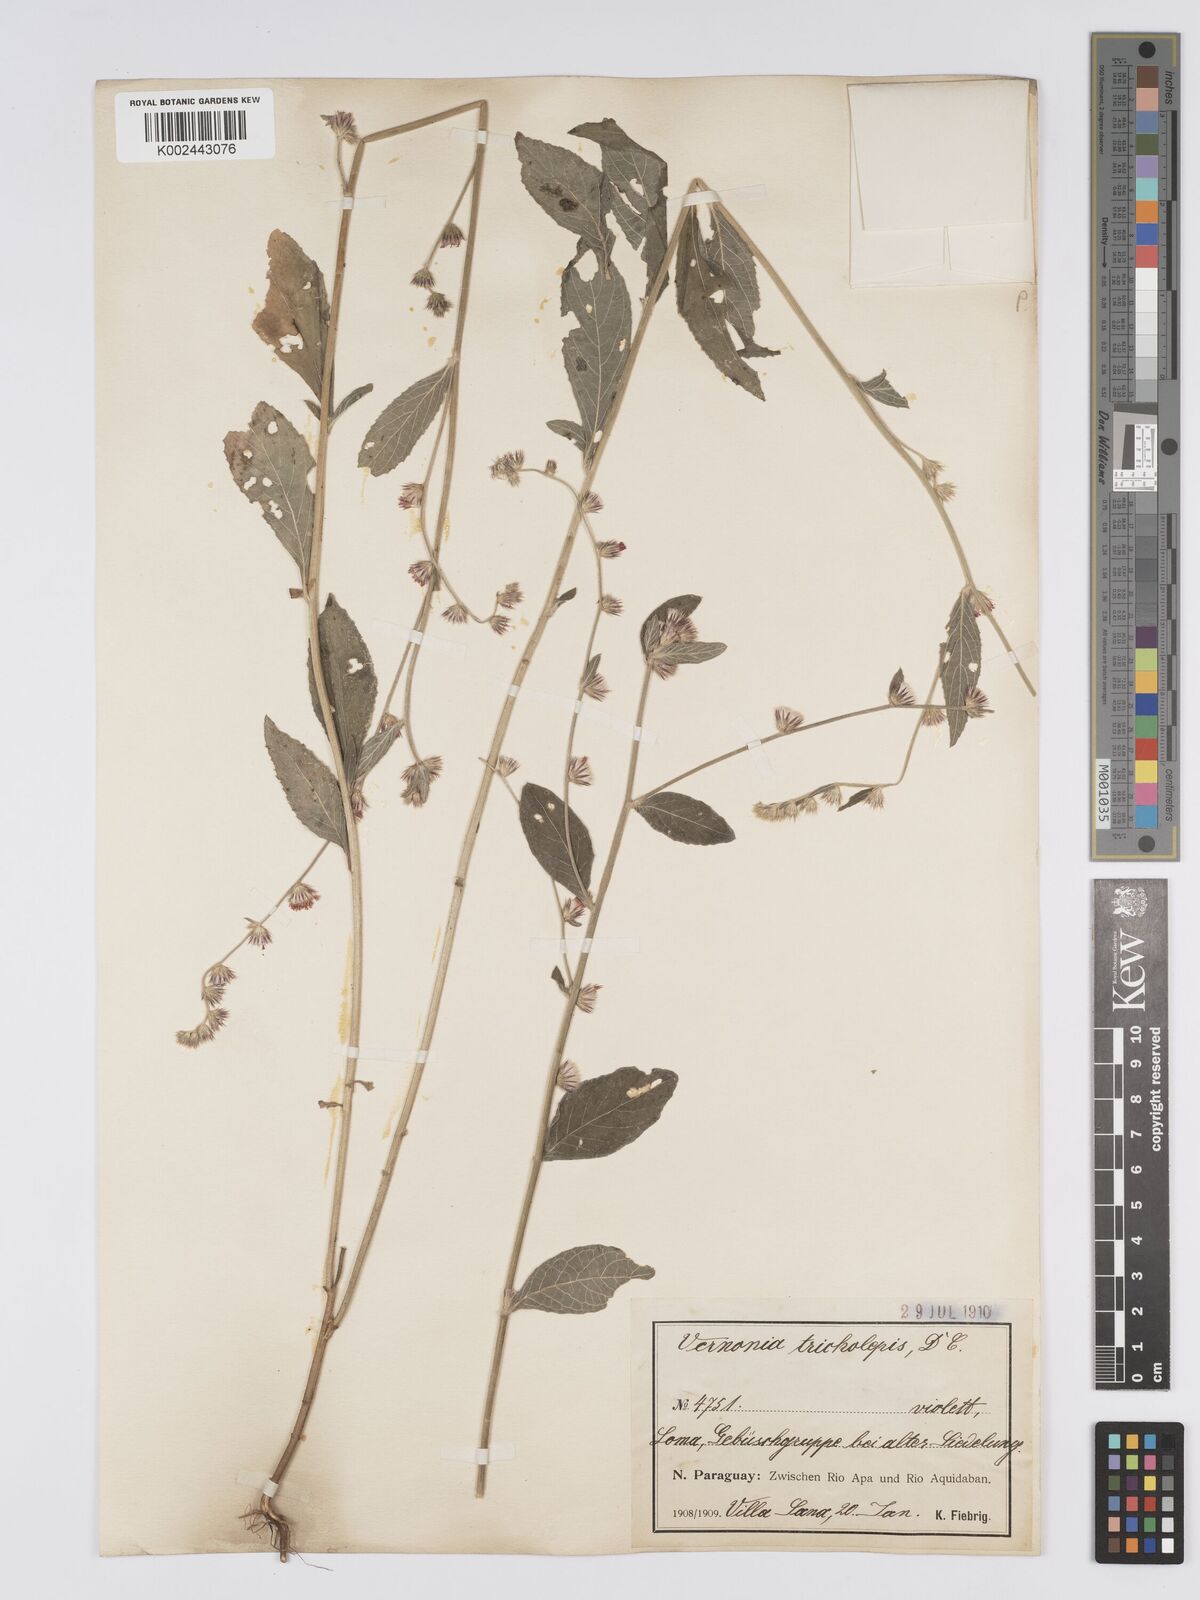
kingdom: Plantae
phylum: Tracheophyta
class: Magnoliopsida
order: Asterales
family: Asteraceae
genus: Lepidaploa
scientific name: Lepidaploa remotiflora
